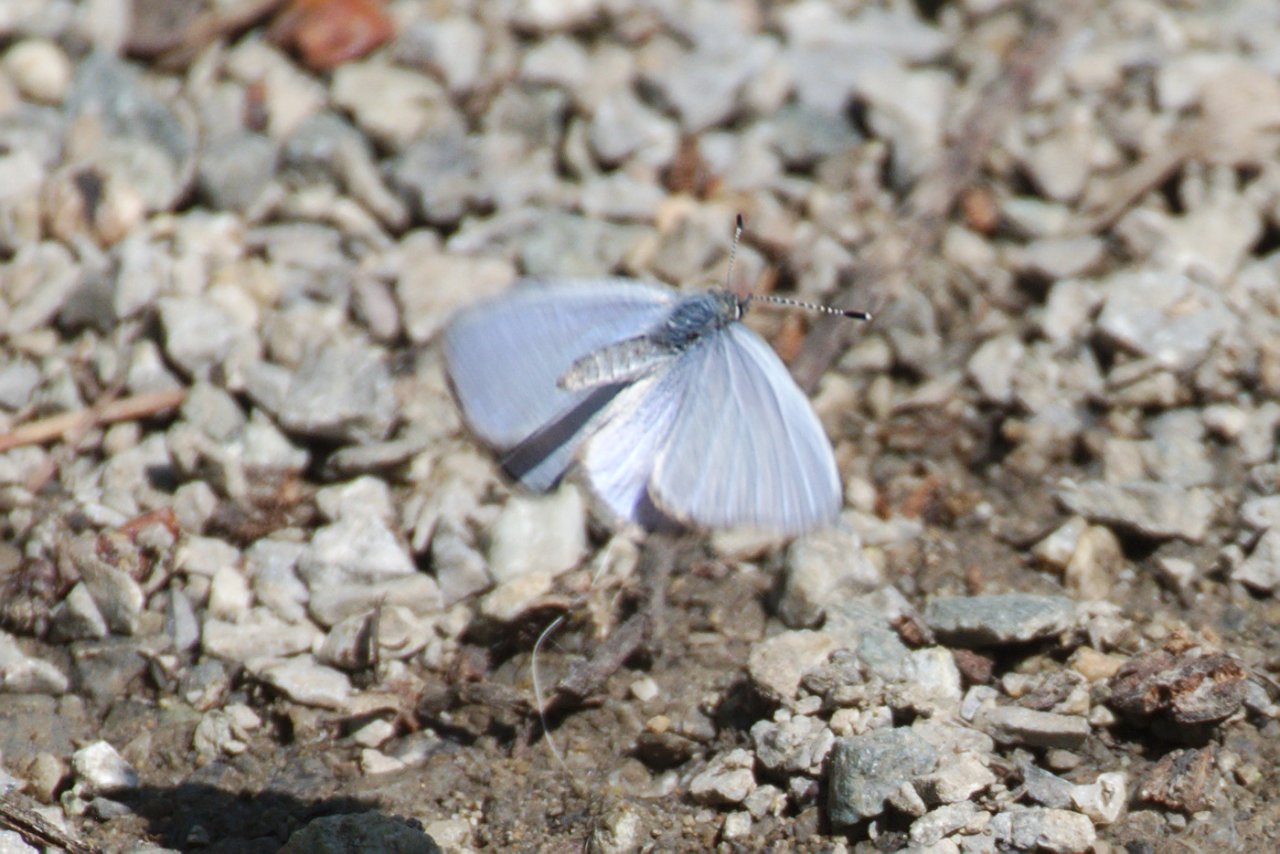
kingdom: Animalia
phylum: Arthropoda
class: Insecta
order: Lepidoptera
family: Lycaenidae
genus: Celastrina
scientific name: Celastrina lucia
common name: Northern Spring Azure
